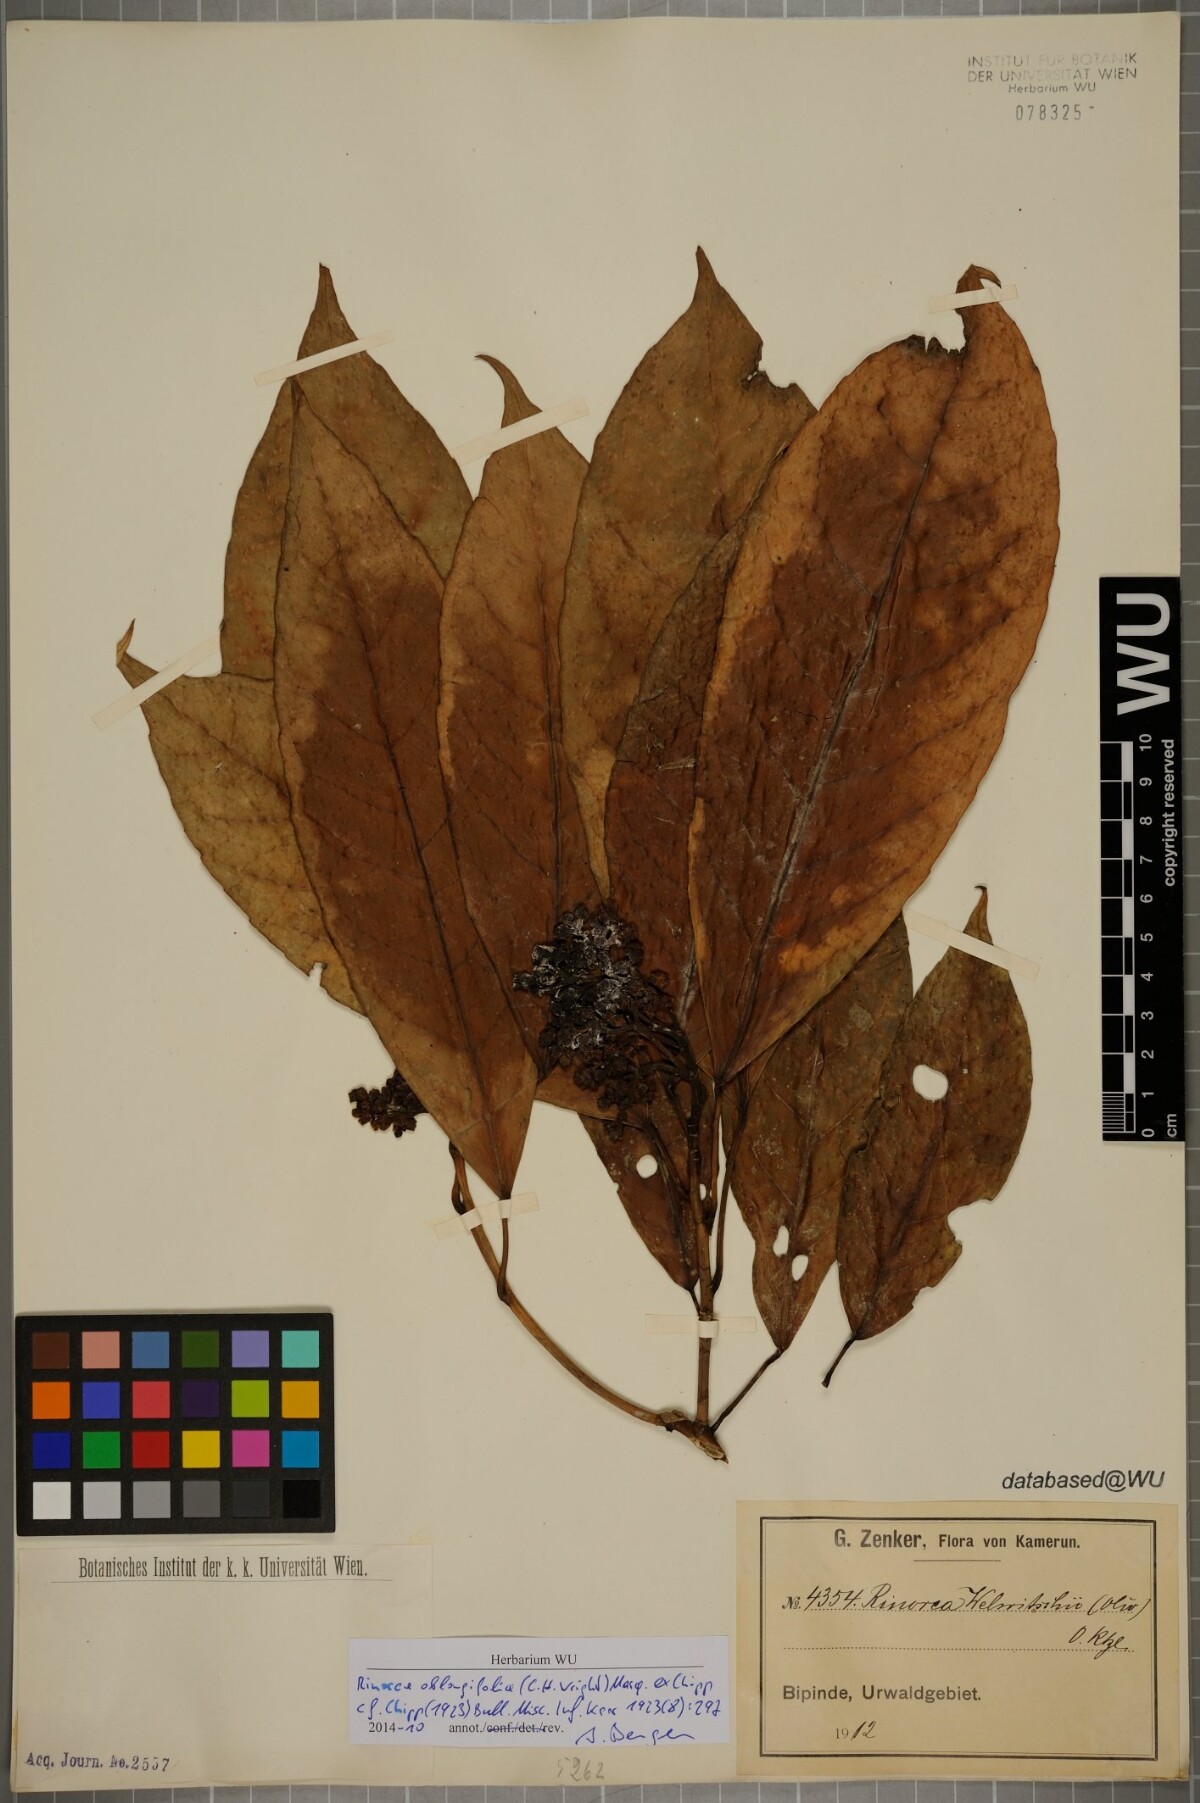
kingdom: Plantae
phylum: Tracheophyta
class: Magnoliopsida
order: Apiales
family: Pittosporaceae
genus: Marianthus
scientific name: Marianthus coeruleopunctatus
